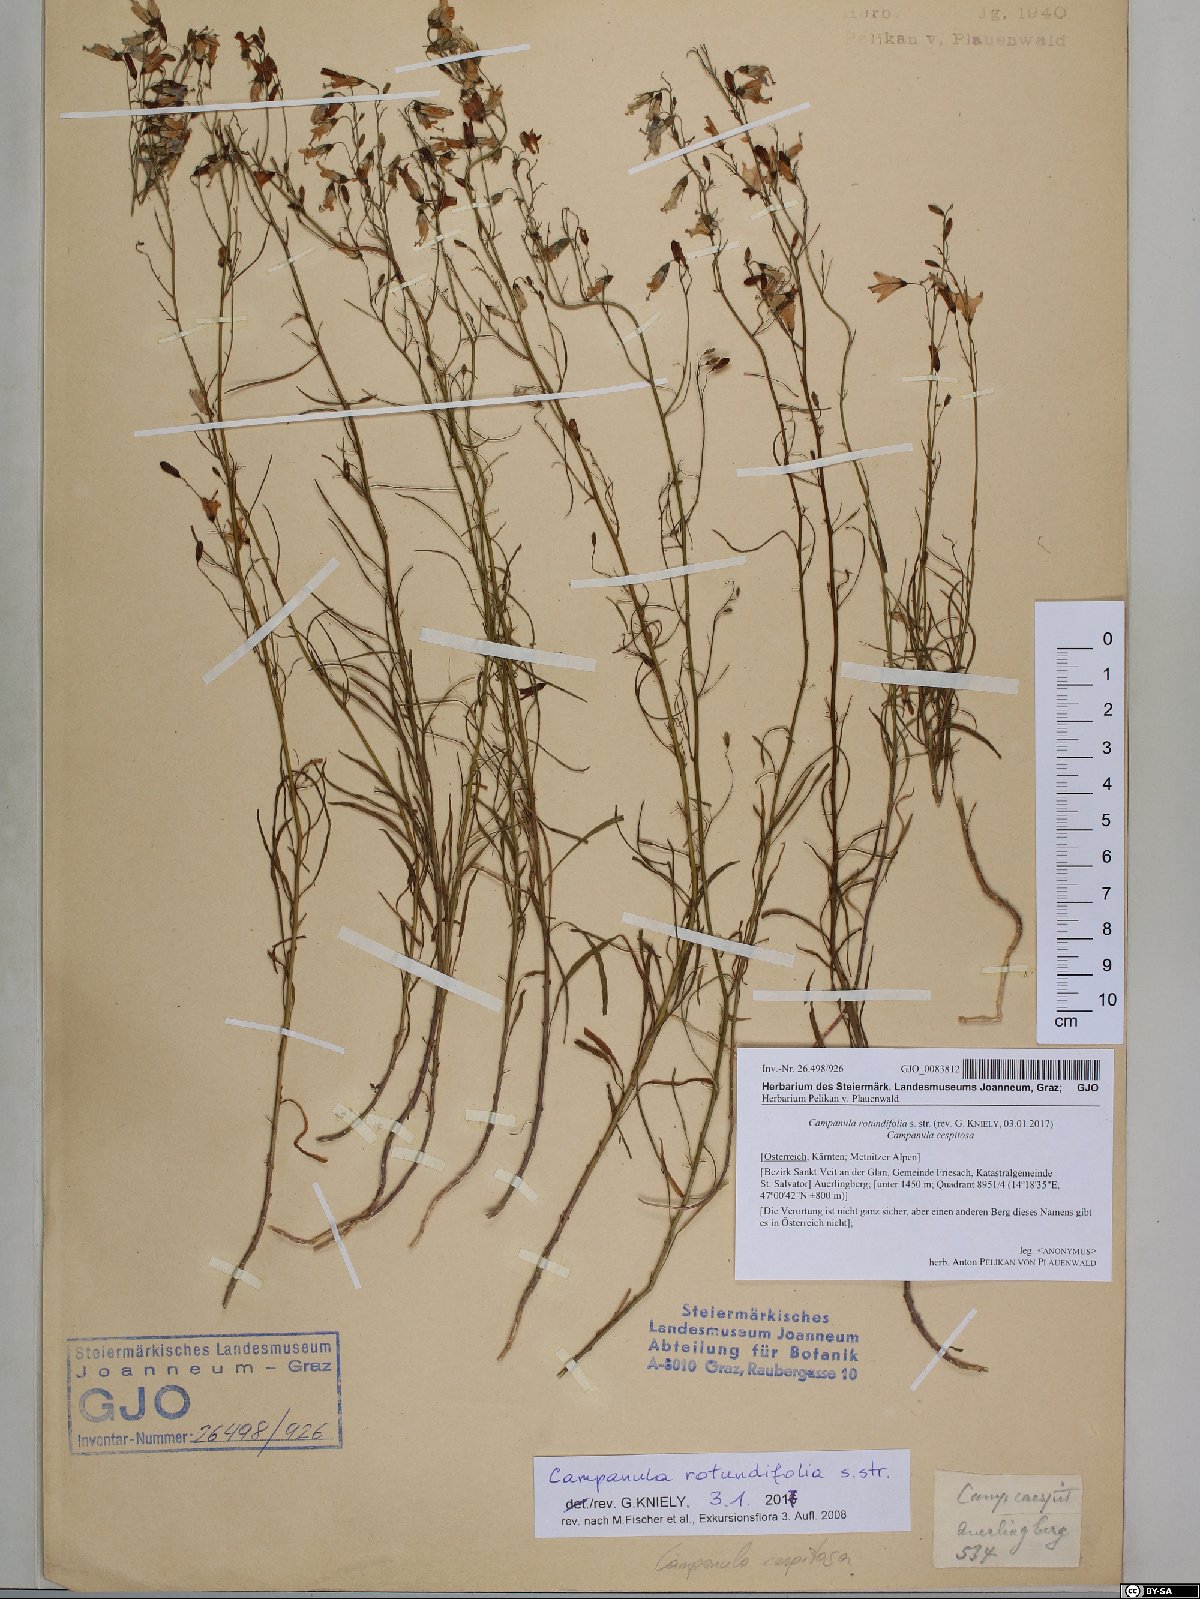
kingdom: Plantae
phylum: Tracheophyta
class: Magnoliopsida
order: Asterales
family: Campanulaceae
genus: Campanula
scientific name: Campanula rotundifolia
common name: Harebell
